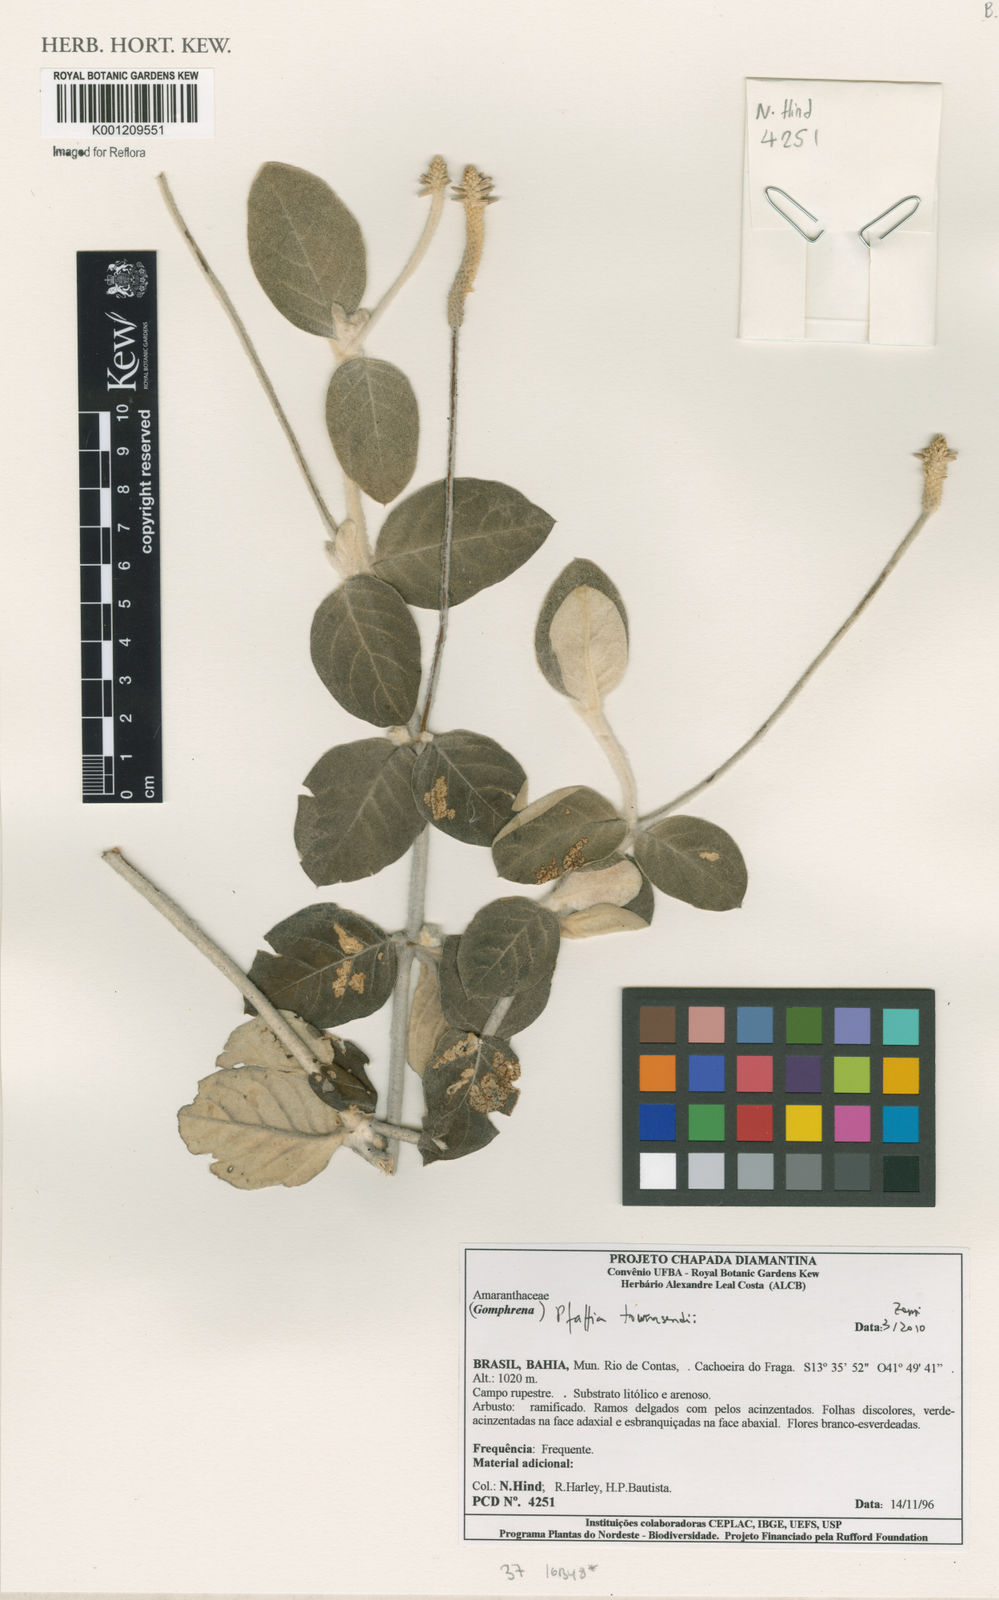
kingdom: Plantae
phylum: Tracheophyta
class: Magnoliopsida
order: Caryophyllales
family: Amaranthaceae
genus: Pfaffia
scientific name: Pfaffia townsendii
